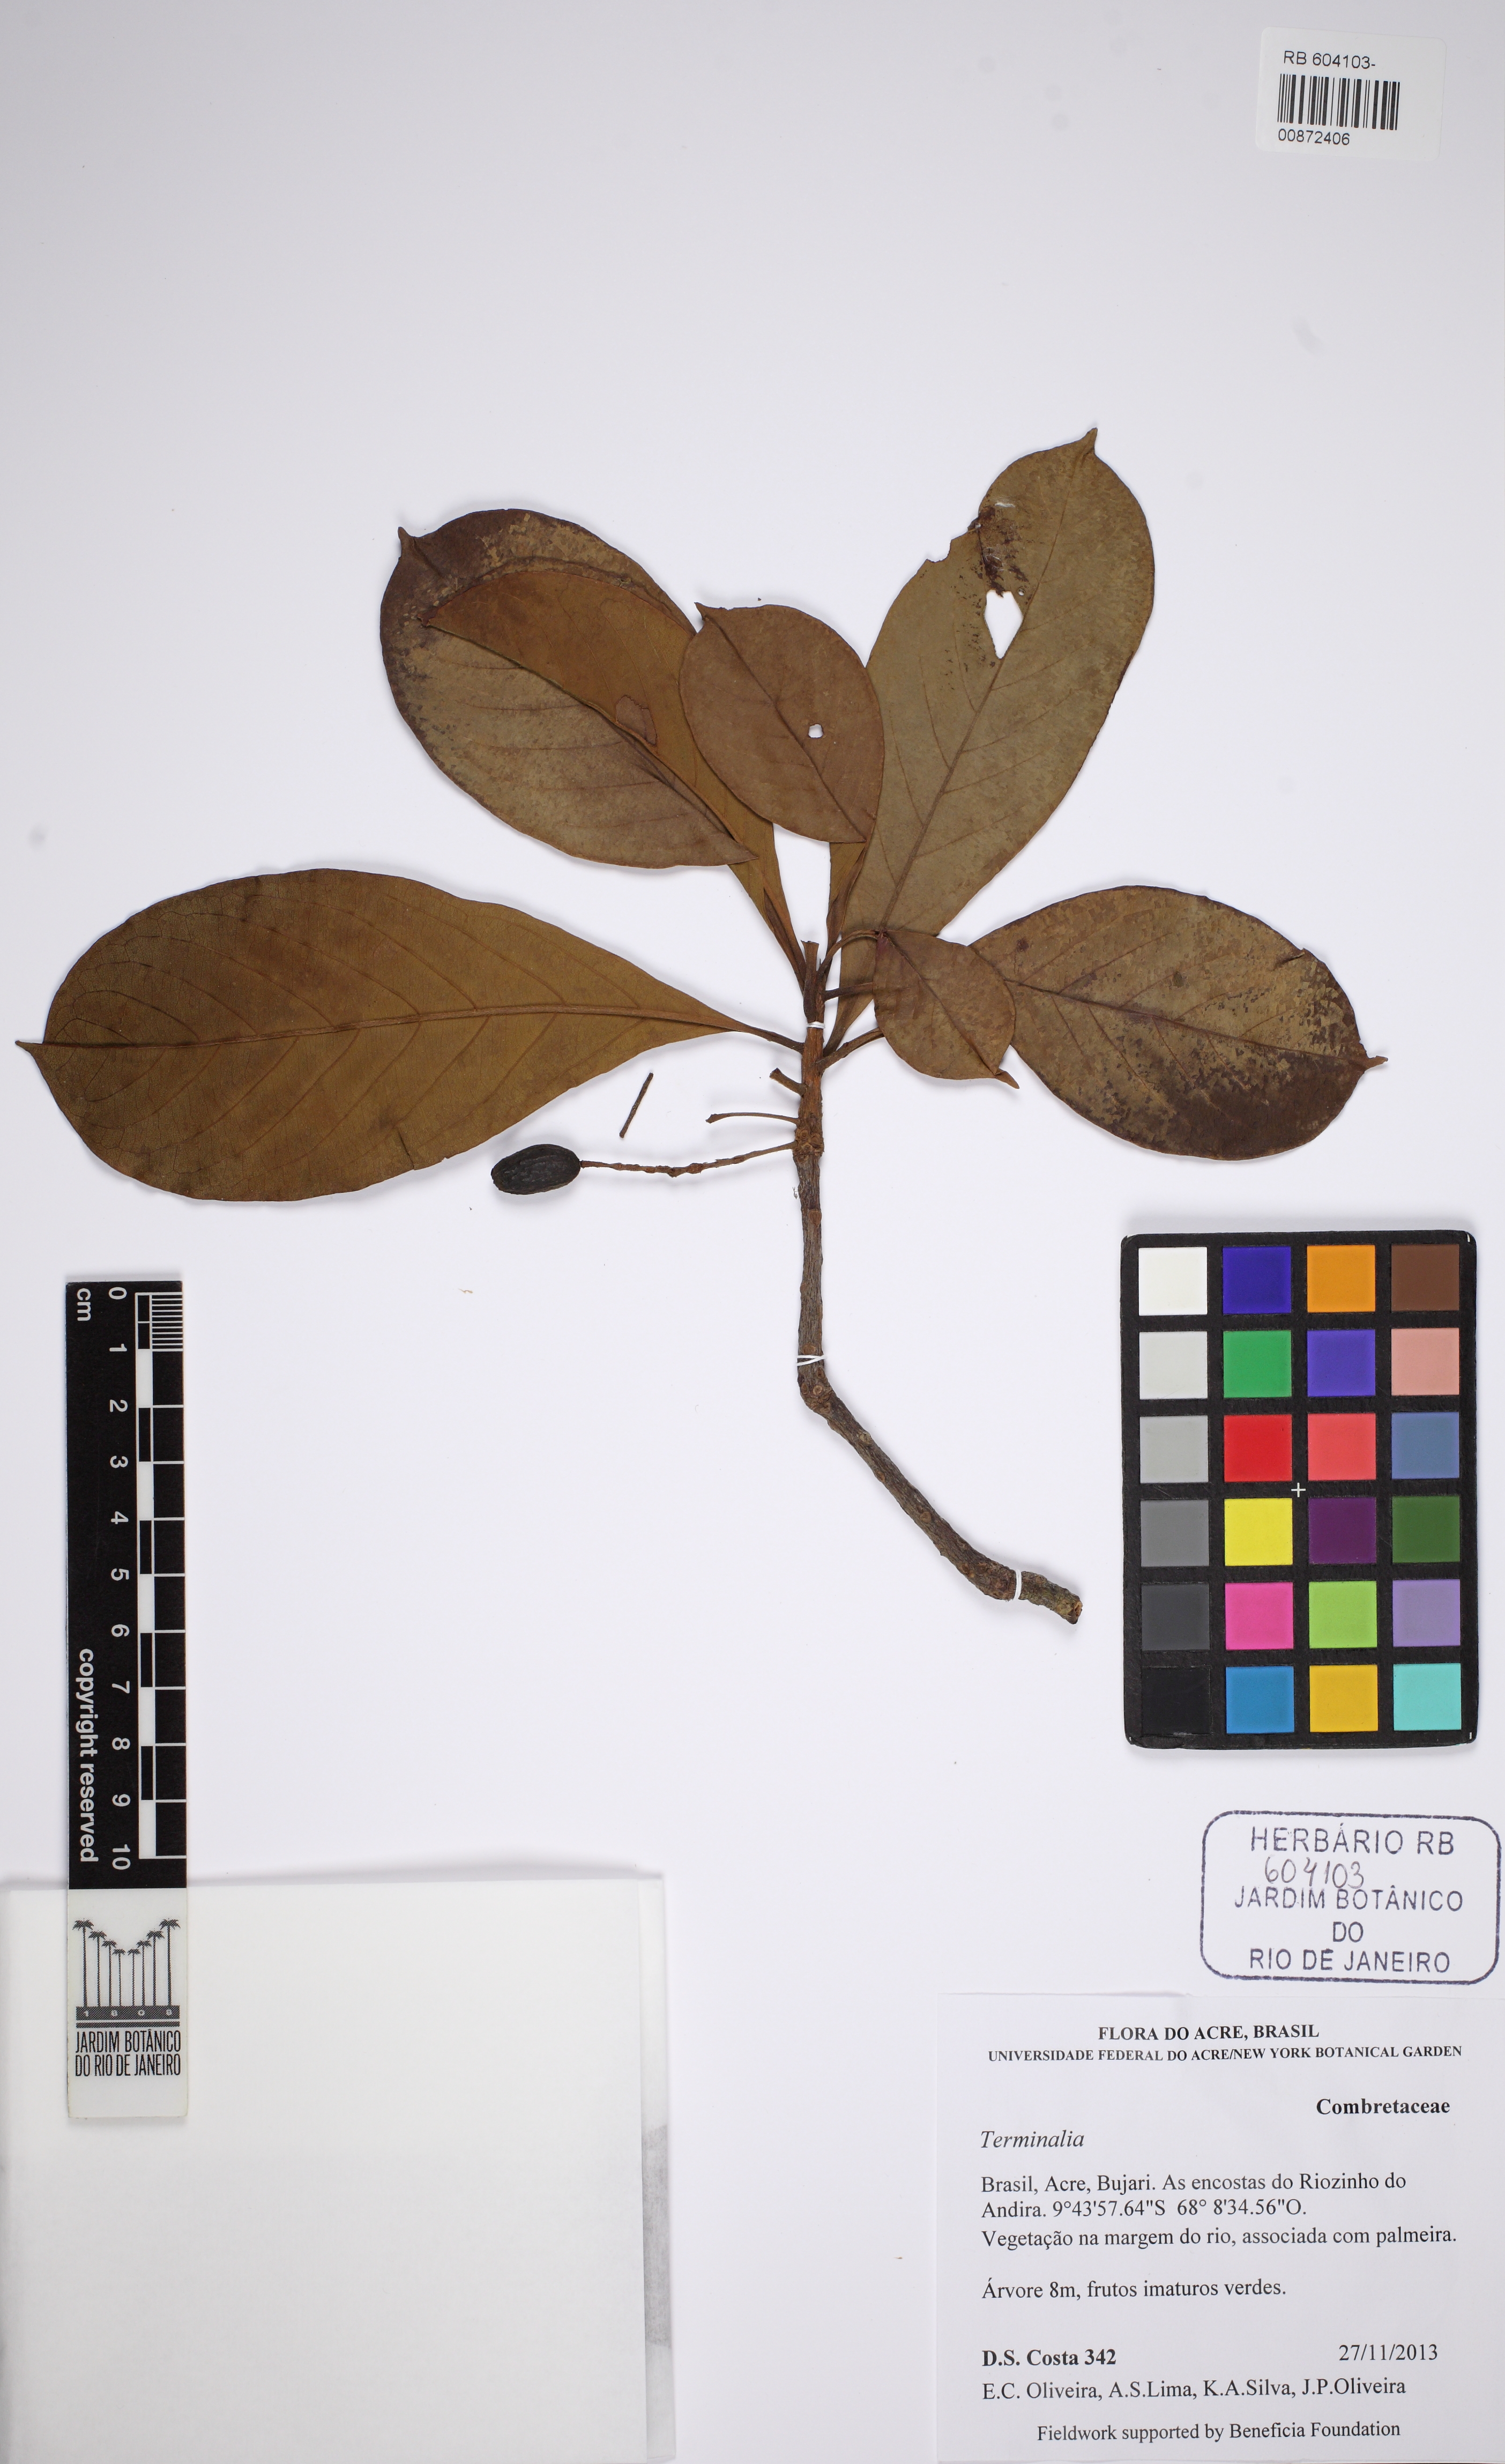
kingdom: Plantae
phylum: Tracheophyta
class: Magnoliopsida
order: Myrtales
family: Combretaceae
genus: Terminalia
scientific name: Terminalia
